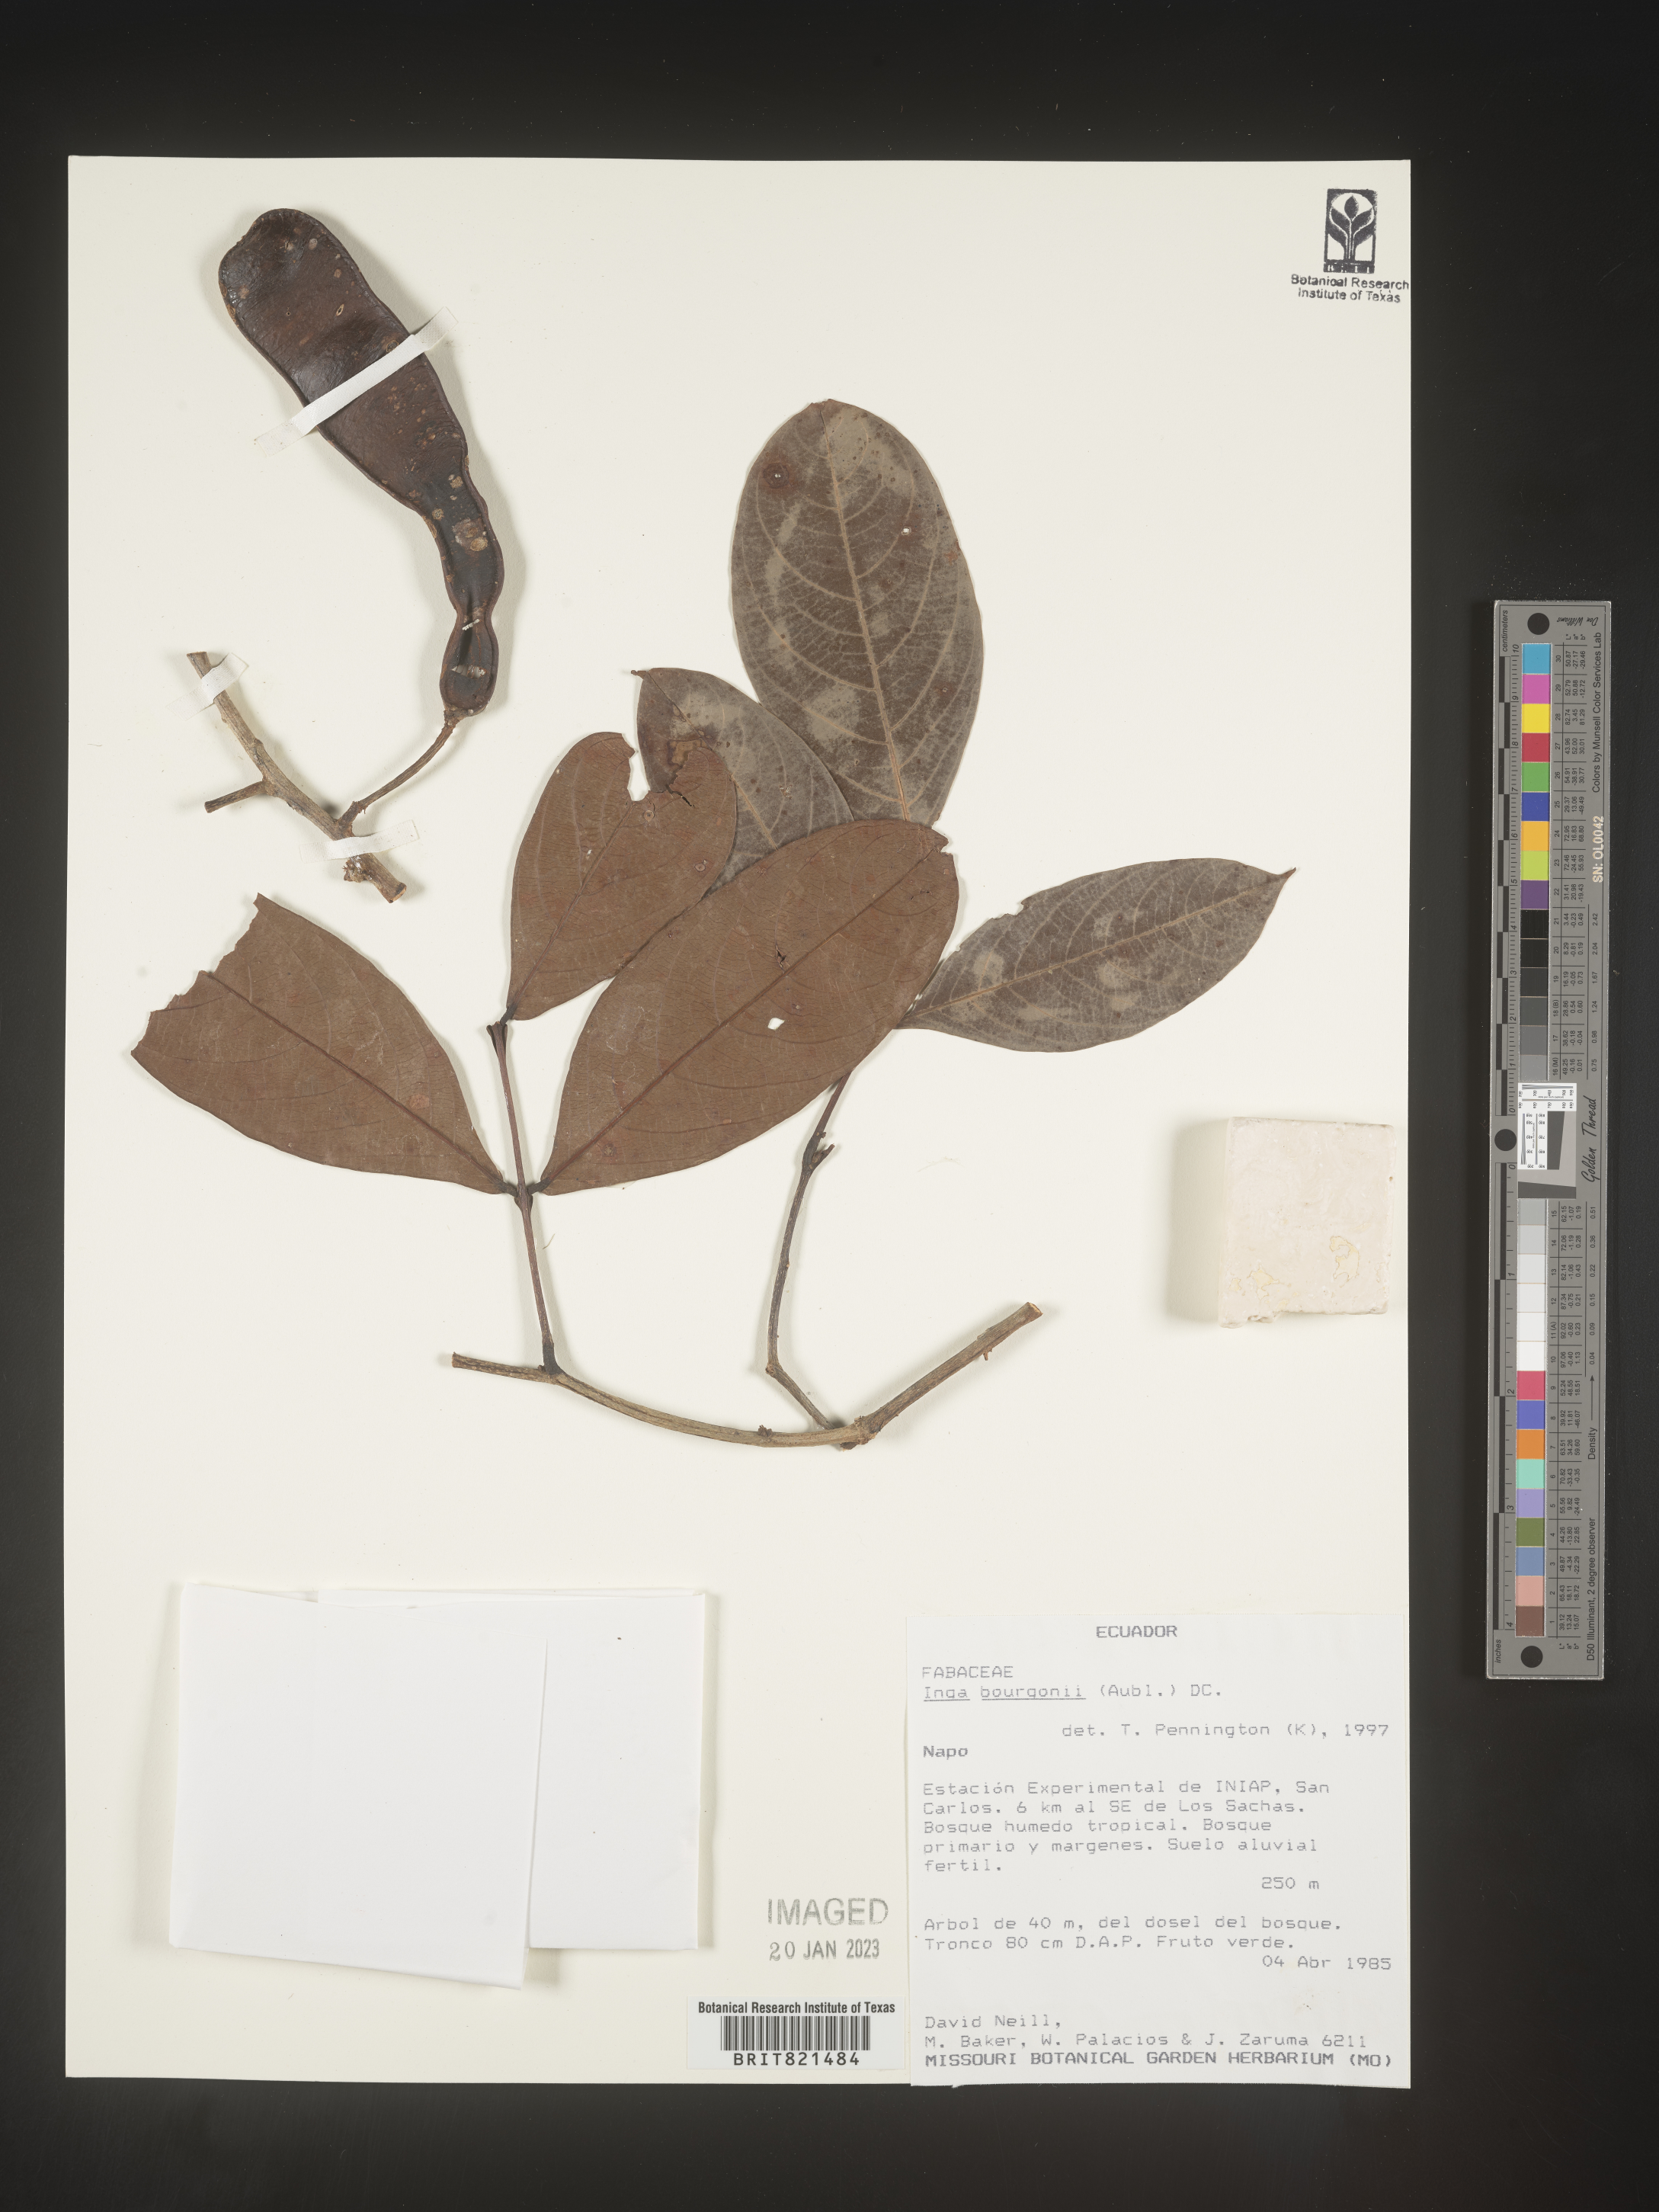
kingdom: Plantae
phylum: Tracheophyta
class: Magnoliopsida
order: Fabales
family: Fabaceae
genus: Inga
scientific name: Inga
